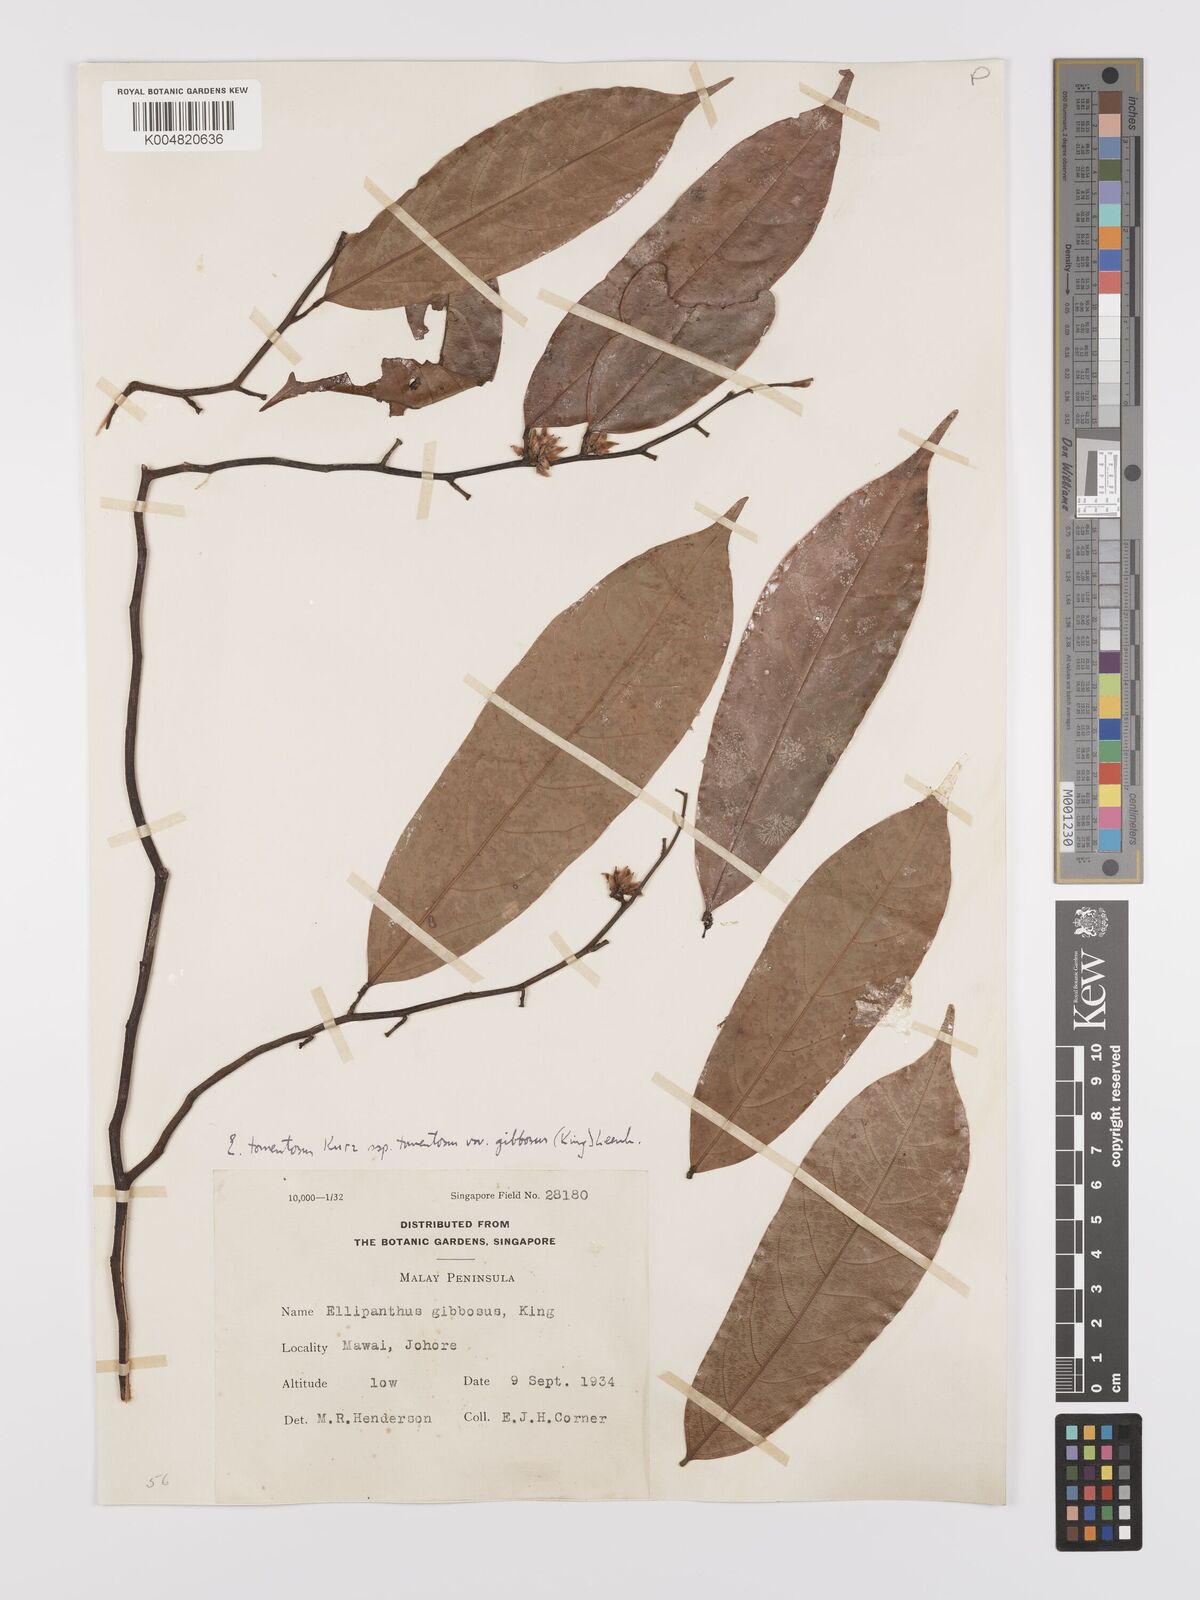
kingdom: Plantae
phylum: Tracheophyta
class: Magnoliopsida
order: Oxalidales
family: Connaraceae
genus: Ellipanthus
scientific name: Ellipanthus tomentosus
